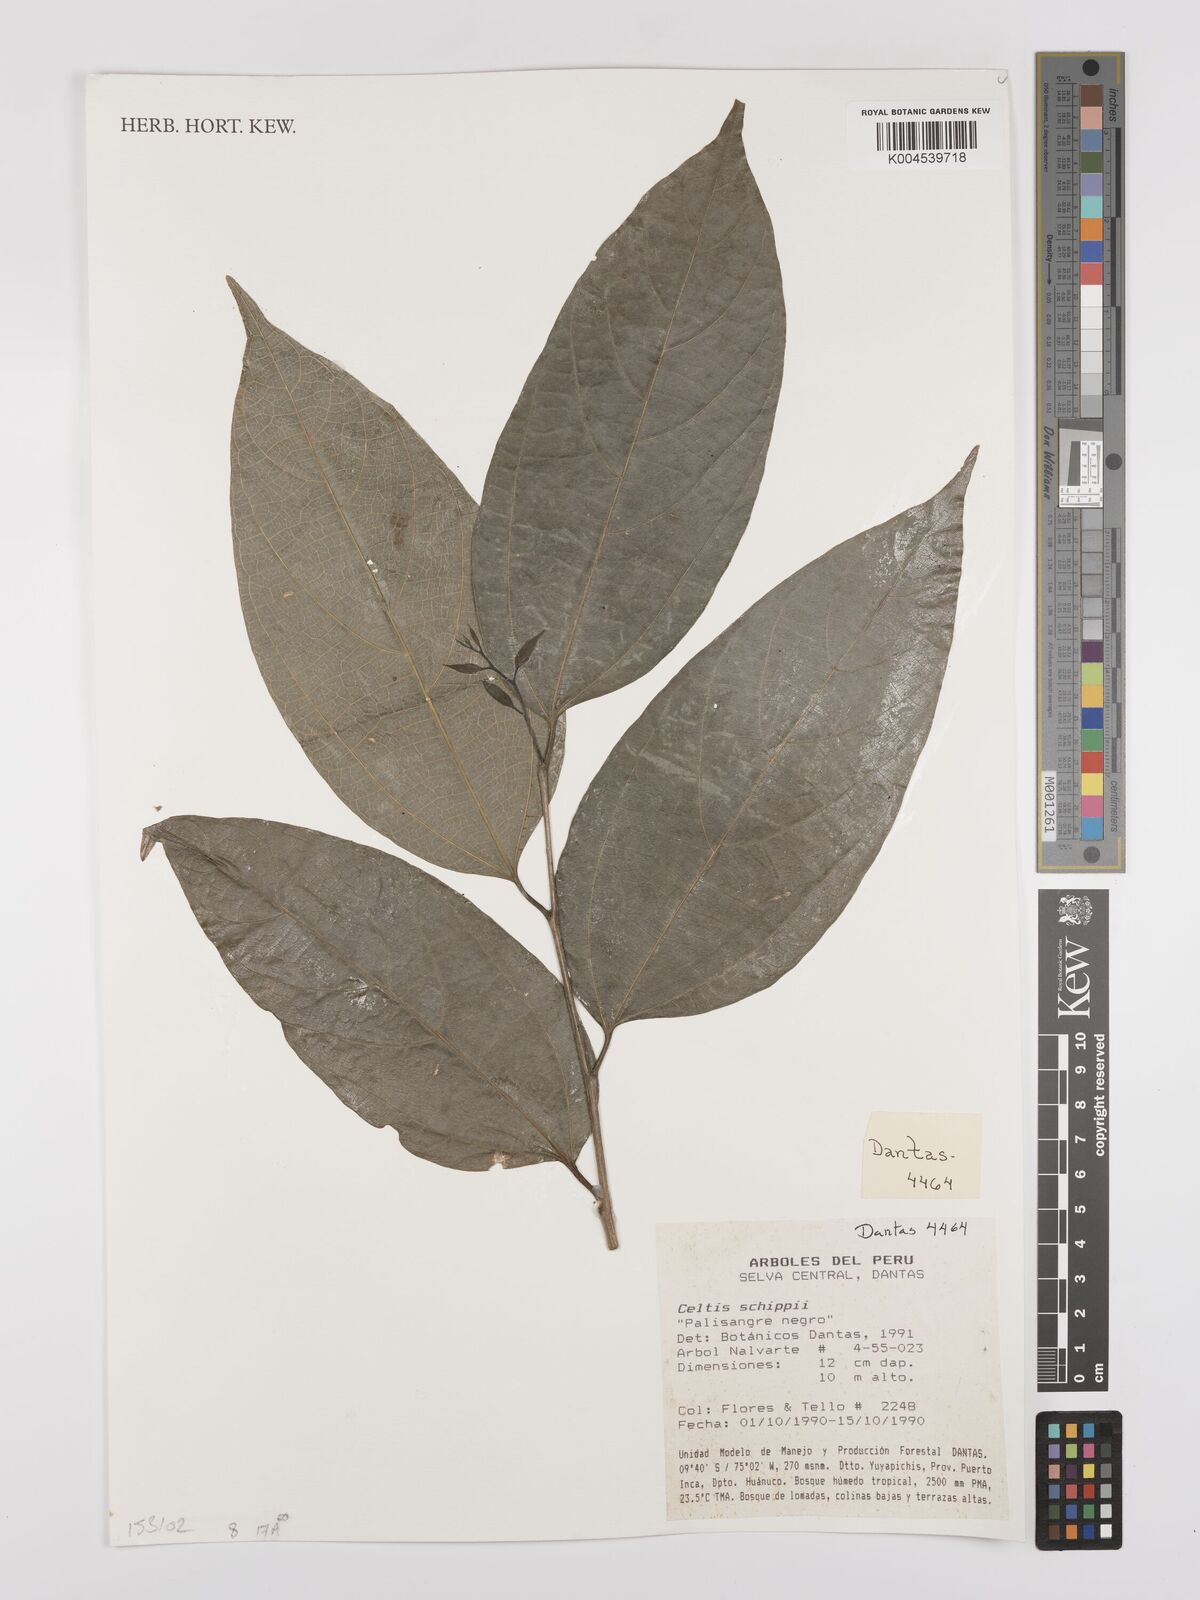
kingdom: Plantae
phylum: Tracheophyta
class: Magnoliopsida
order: Rosales
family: Cannabaceae
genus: Celtis
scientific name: Celtis schippii
